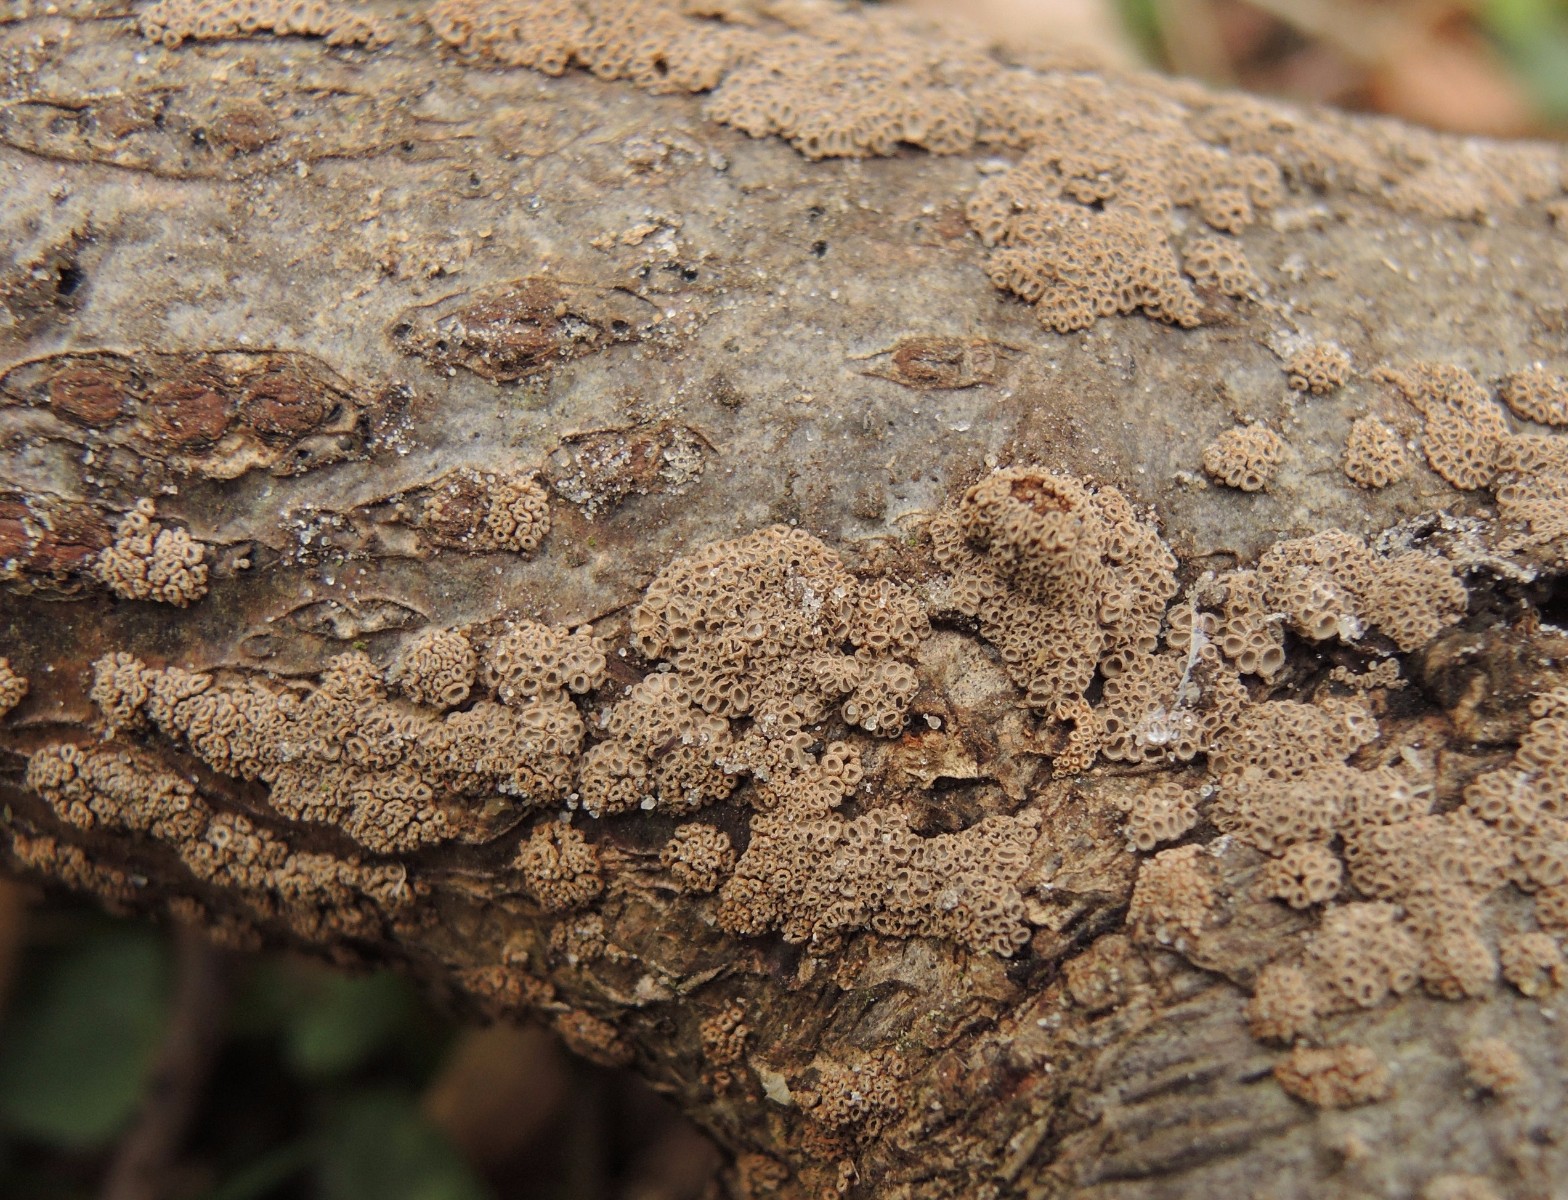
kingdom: Fungi
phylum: Basidiomycota
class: Agaricomycetes
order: Agaricales
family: Niaceae
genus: Merismodes
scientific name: Merismodes anomala
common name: almindelig læderskål
